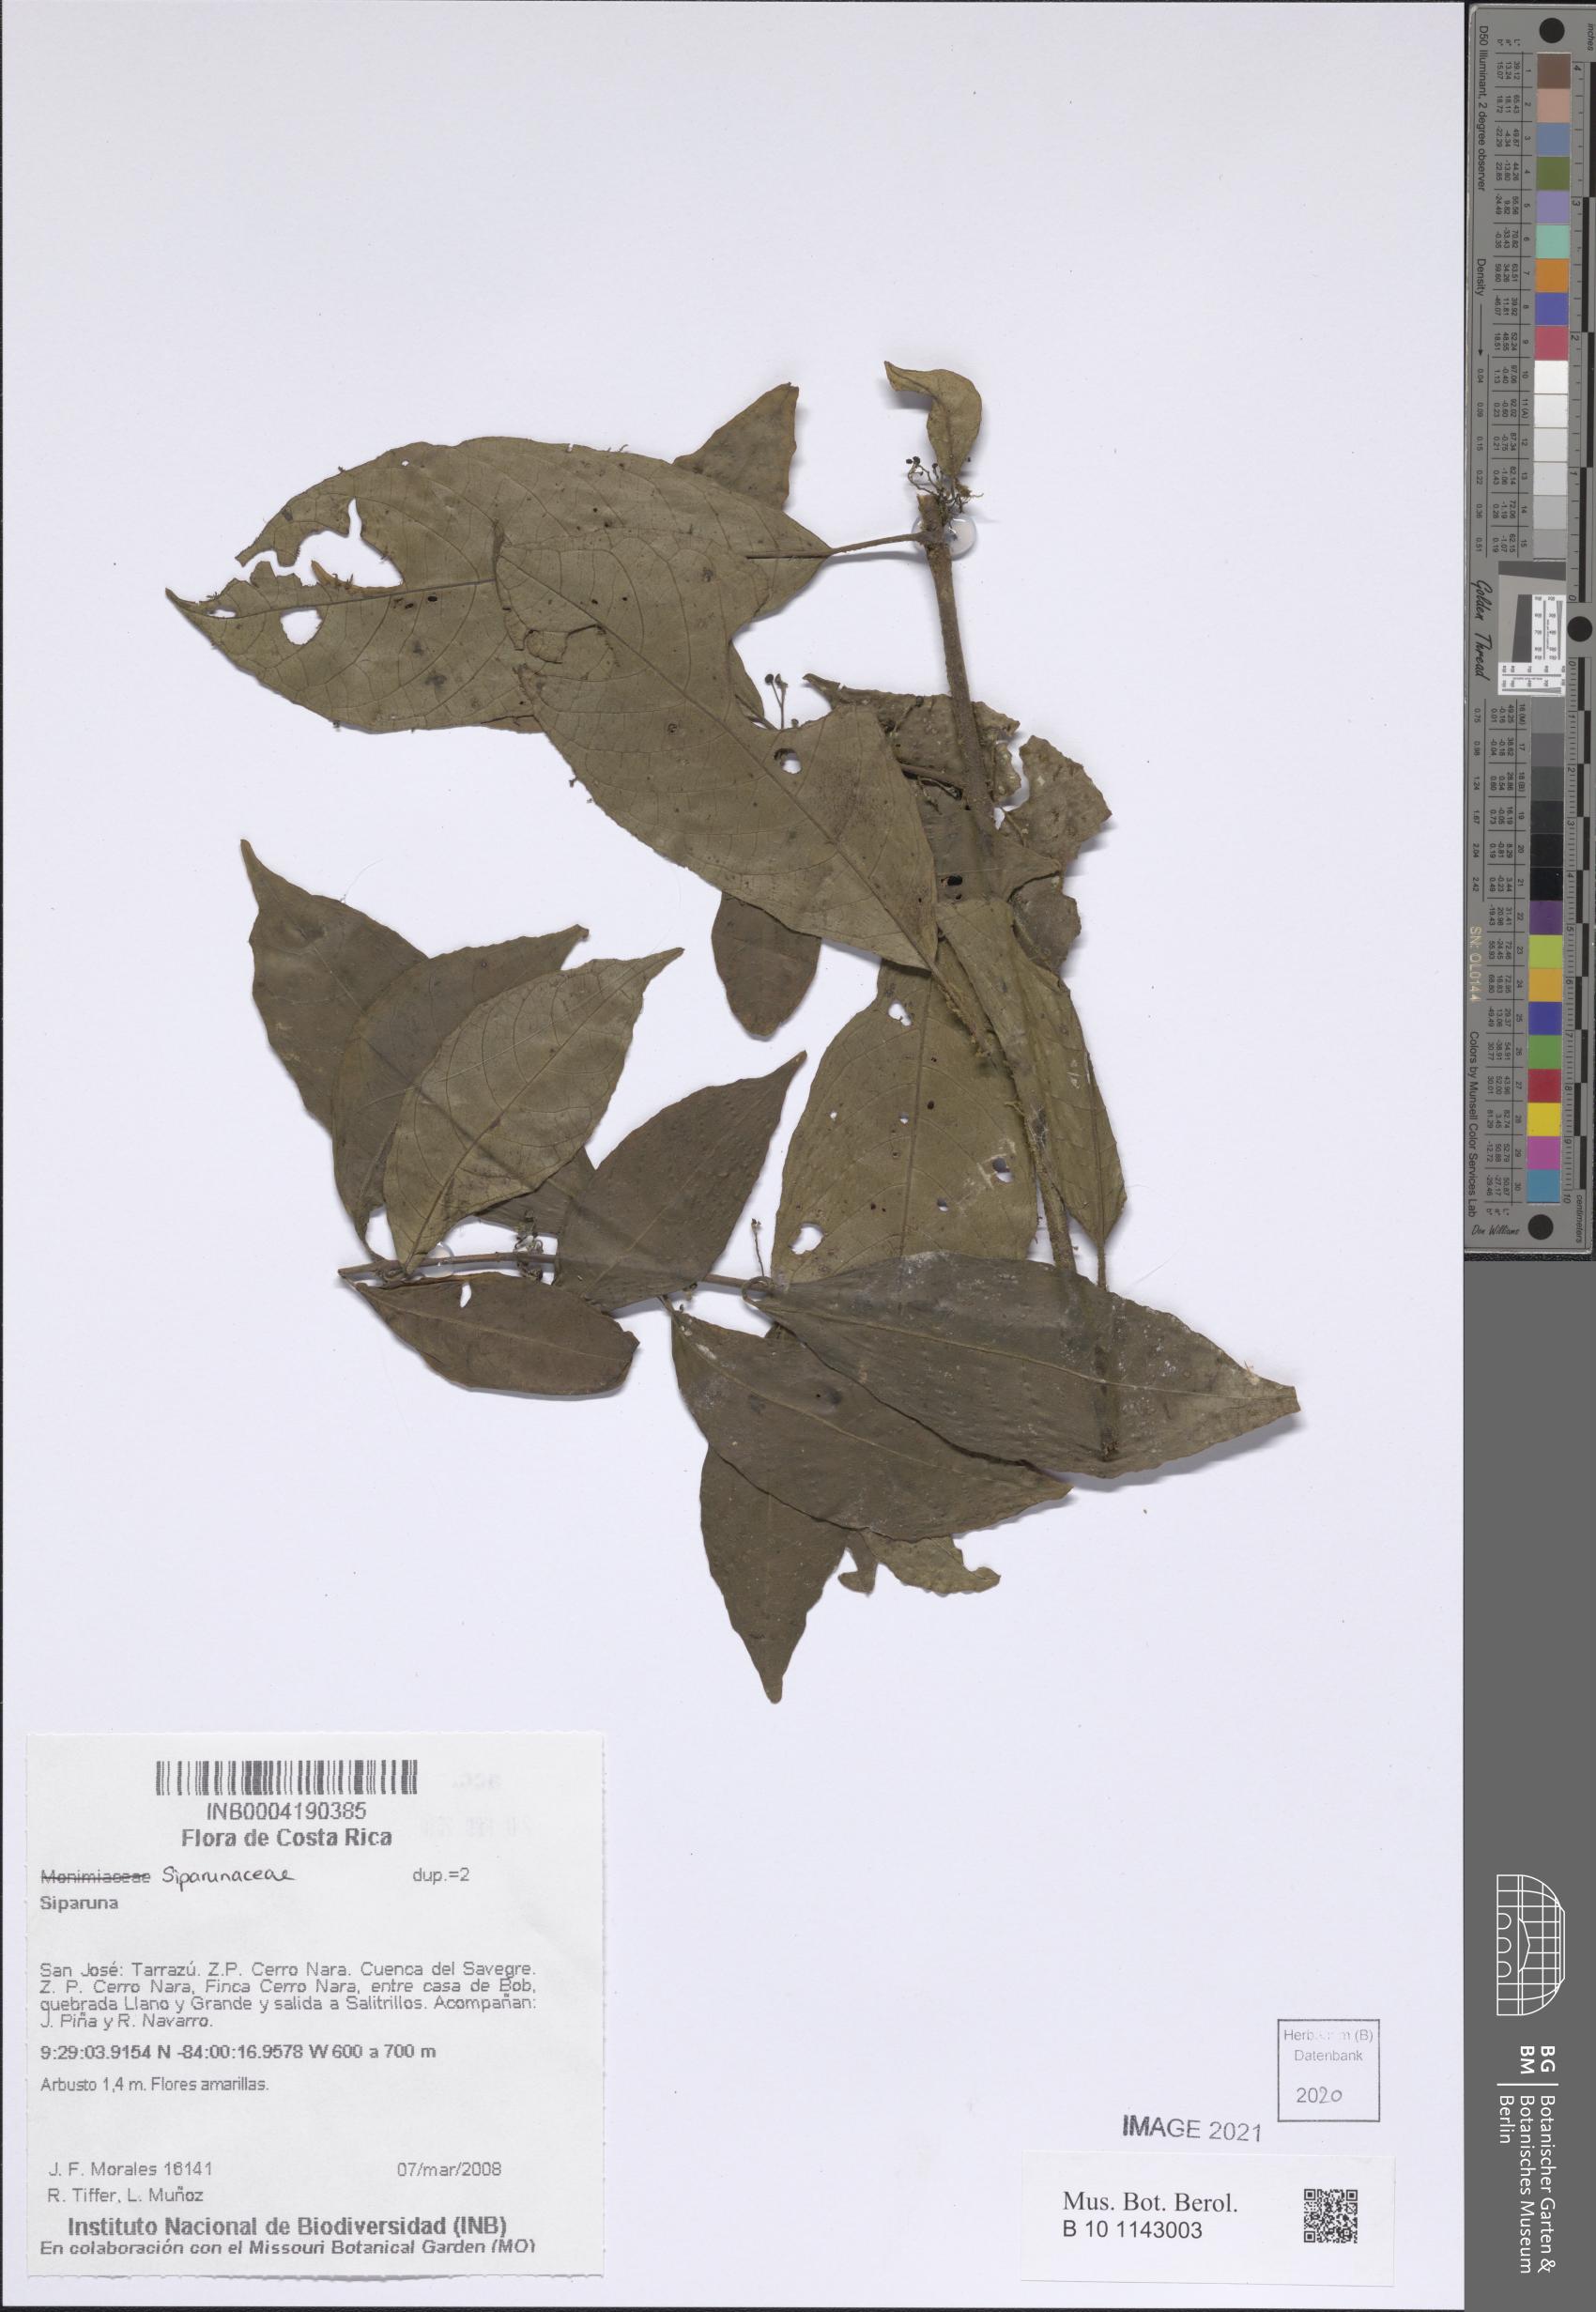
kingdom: Plantae
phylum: Tracheophyta
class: Magnoliopsida
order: Laurales
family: Siparunaceae
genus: Siparuna
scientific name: Siparuna
